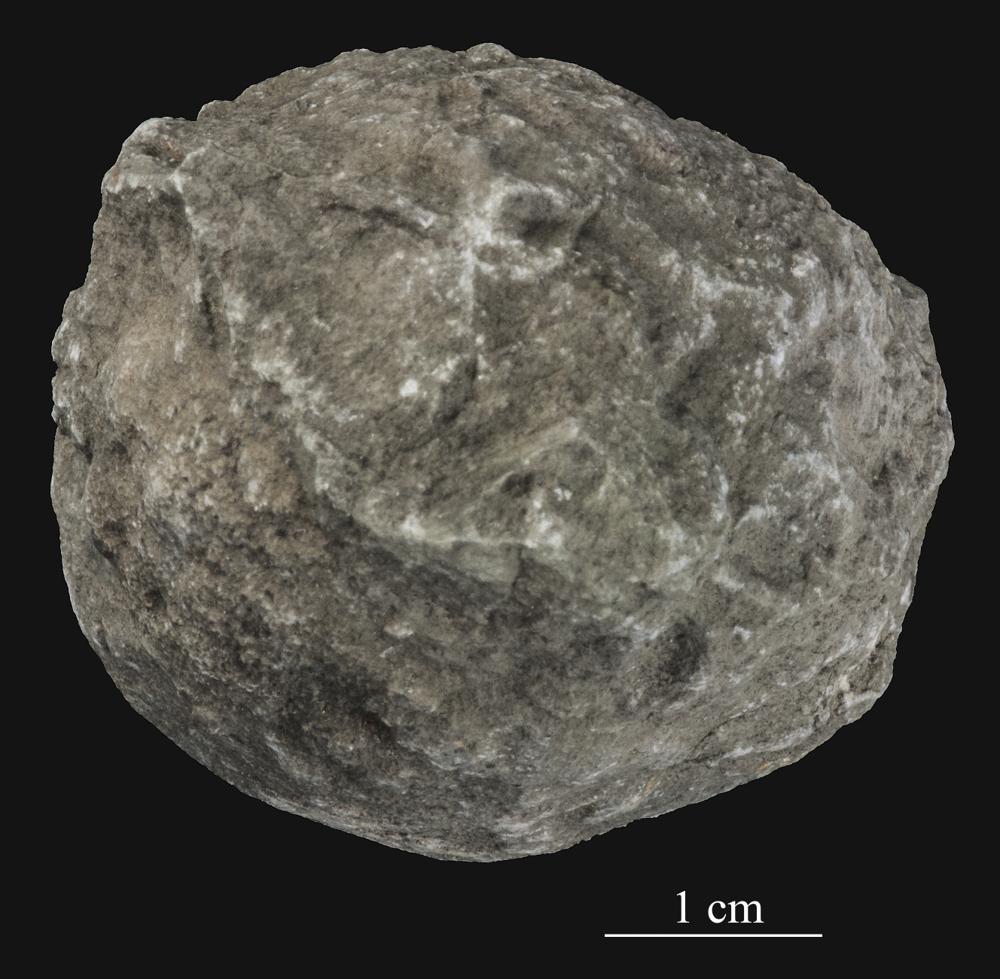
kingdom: Animalia
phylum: Bryozoa
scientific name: Bryozoa
